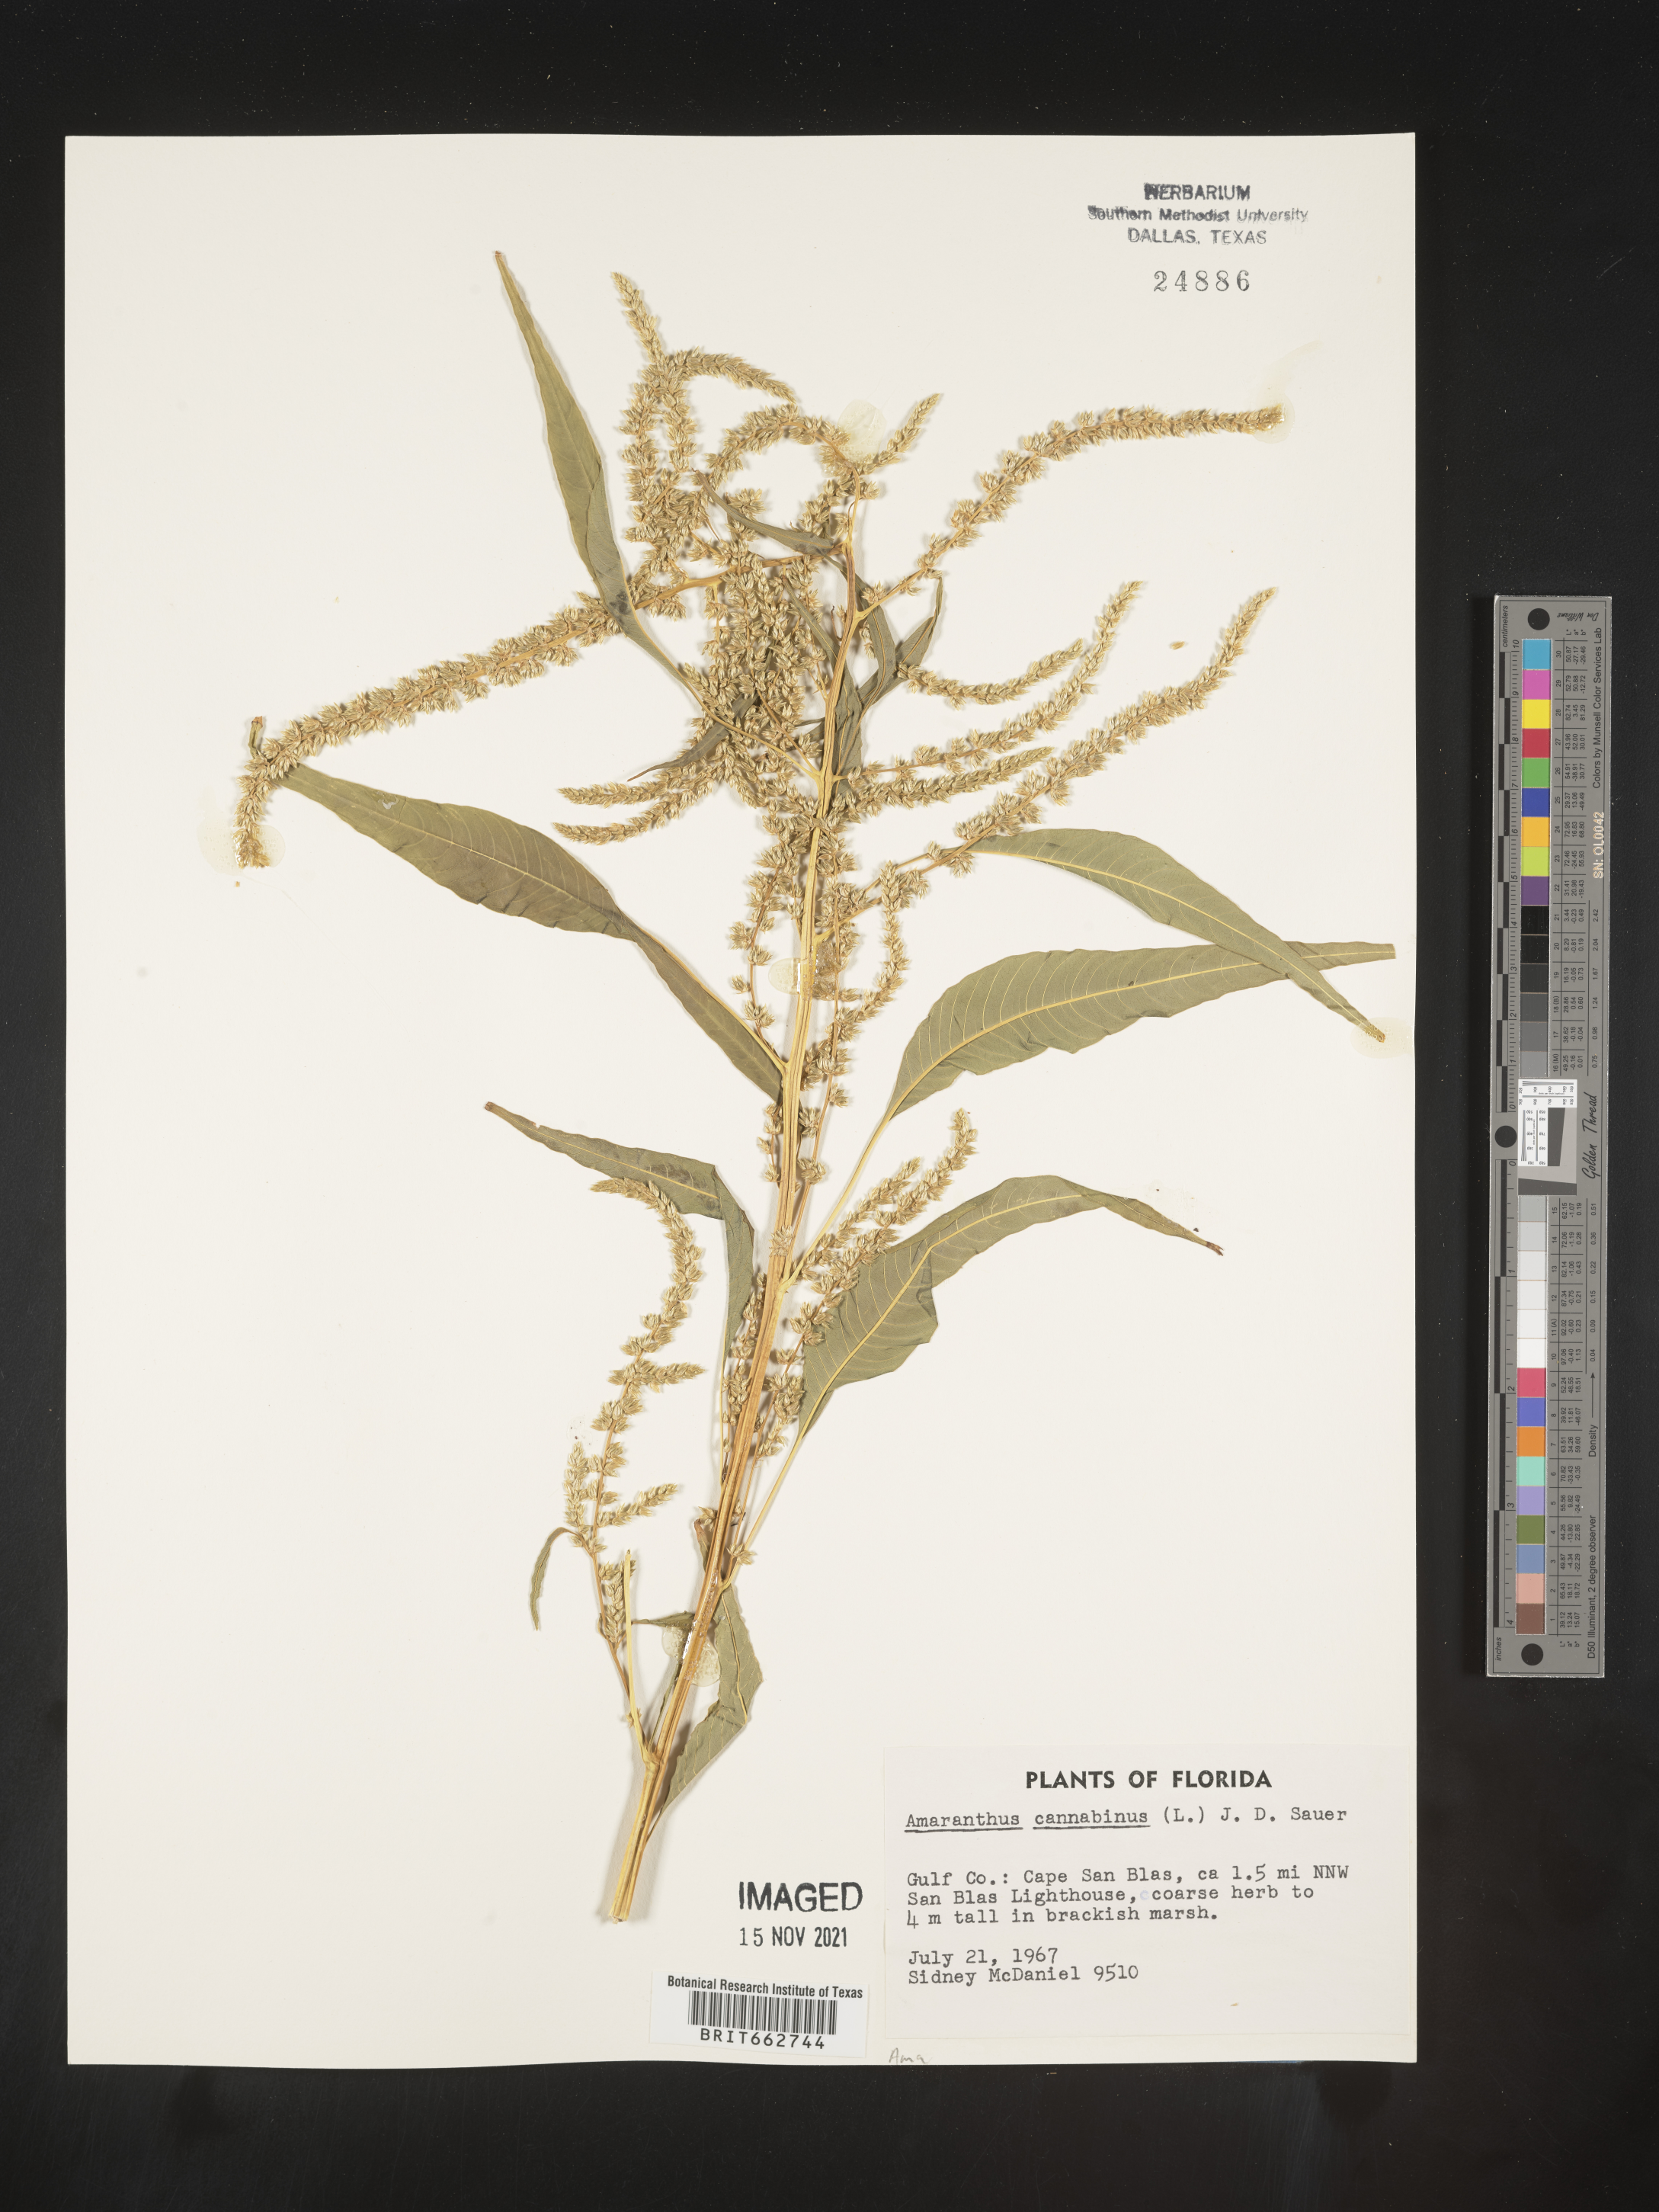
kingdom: Plantae
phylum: Tracheophyta
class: Magnoliopsida
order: Caryophyllales
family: Amaranthaceae
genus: Amaranthus
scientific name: Amaranthus powellii
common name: Powell's amaranth
